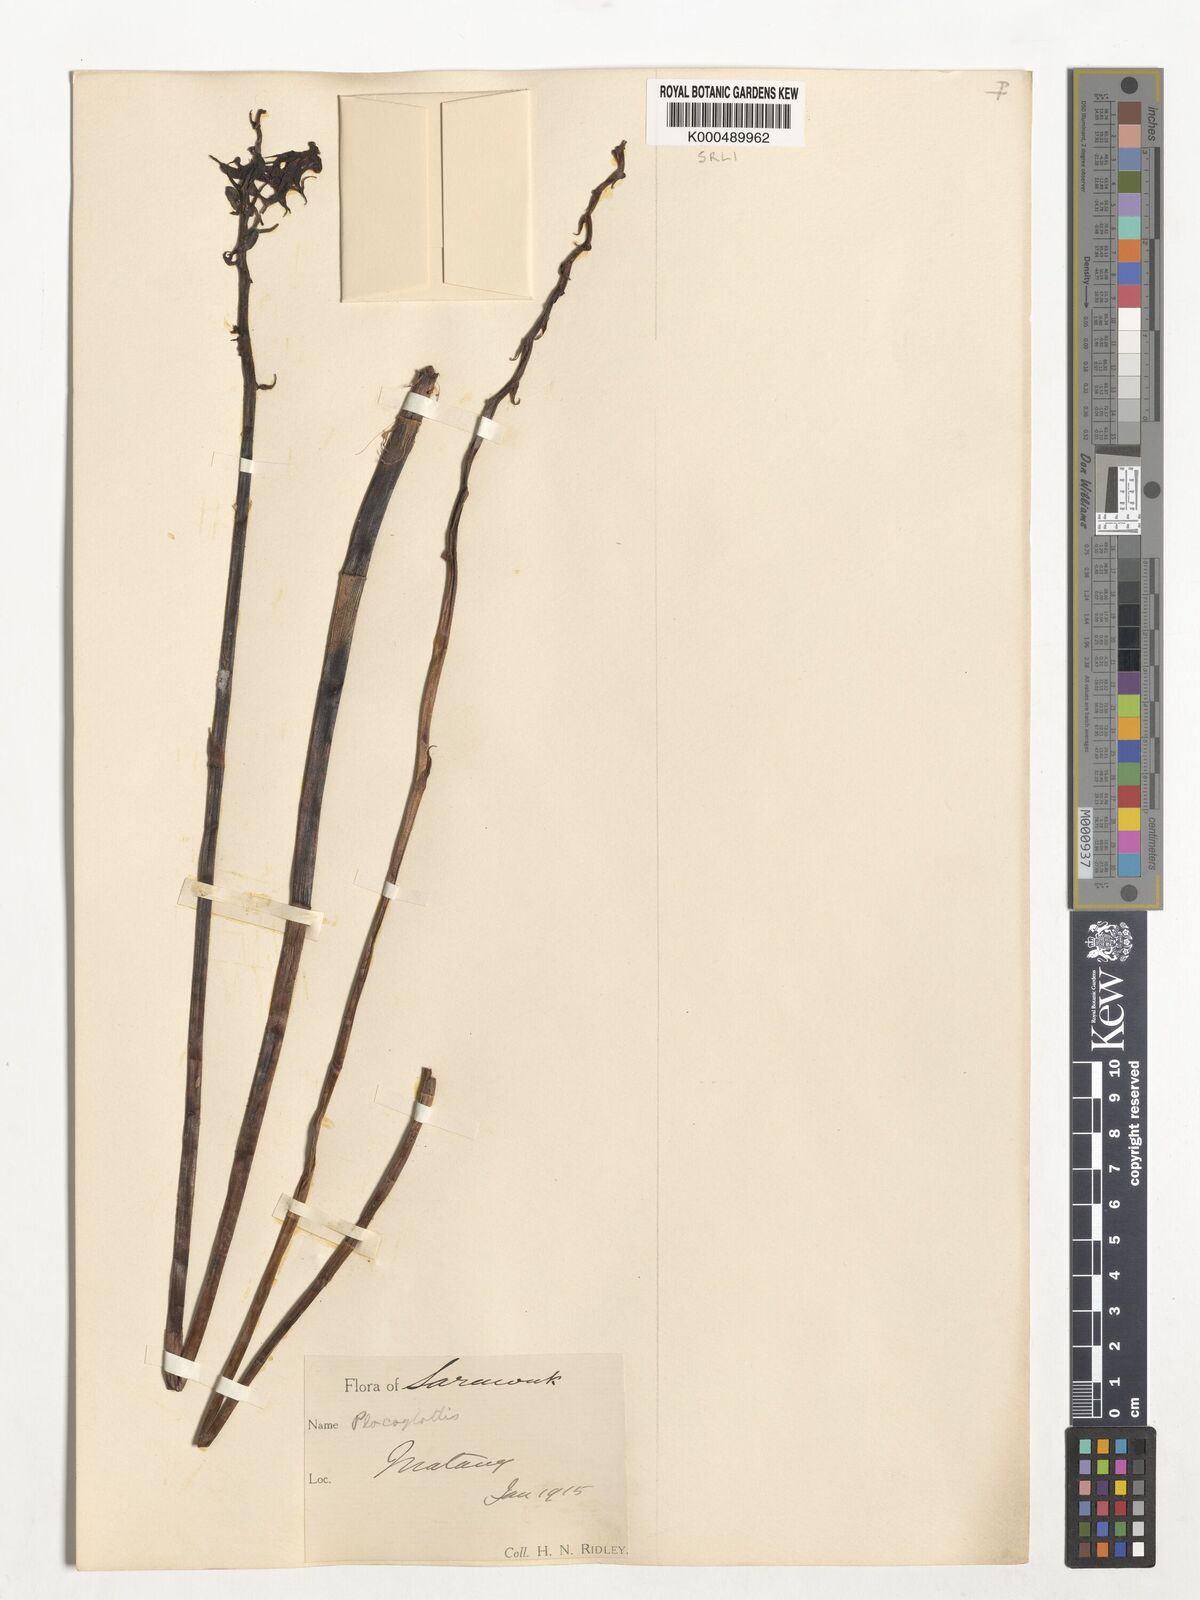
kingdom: Plantae
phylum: Tracheophyta
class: Liliopsida
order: Asparagales
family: Orchidaceae
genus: Plocoglottis
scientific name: Plocoglottis borneensis
